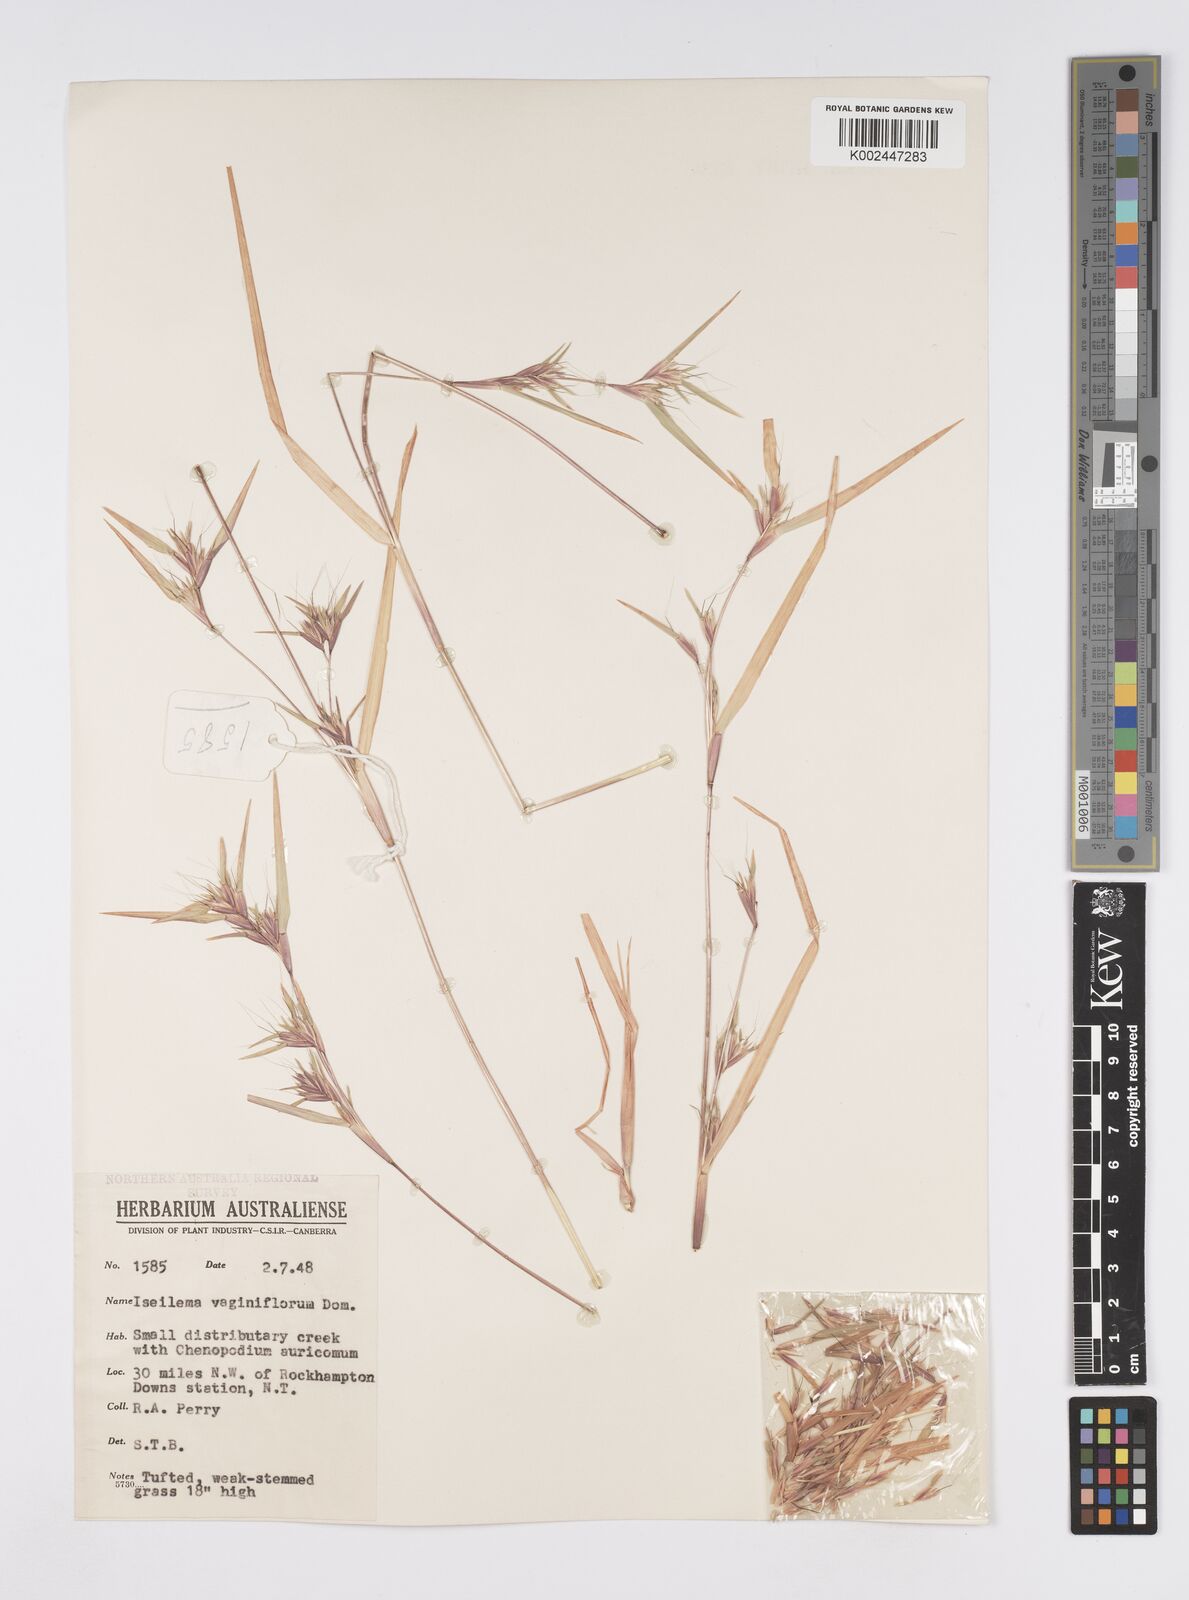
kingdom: Plantae
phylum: Tracheophyta
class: Liliopsida
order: Poales
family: Poaceae
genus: Iseilema
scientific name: Iseilema vaginiflorum
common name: Red flinders grass
